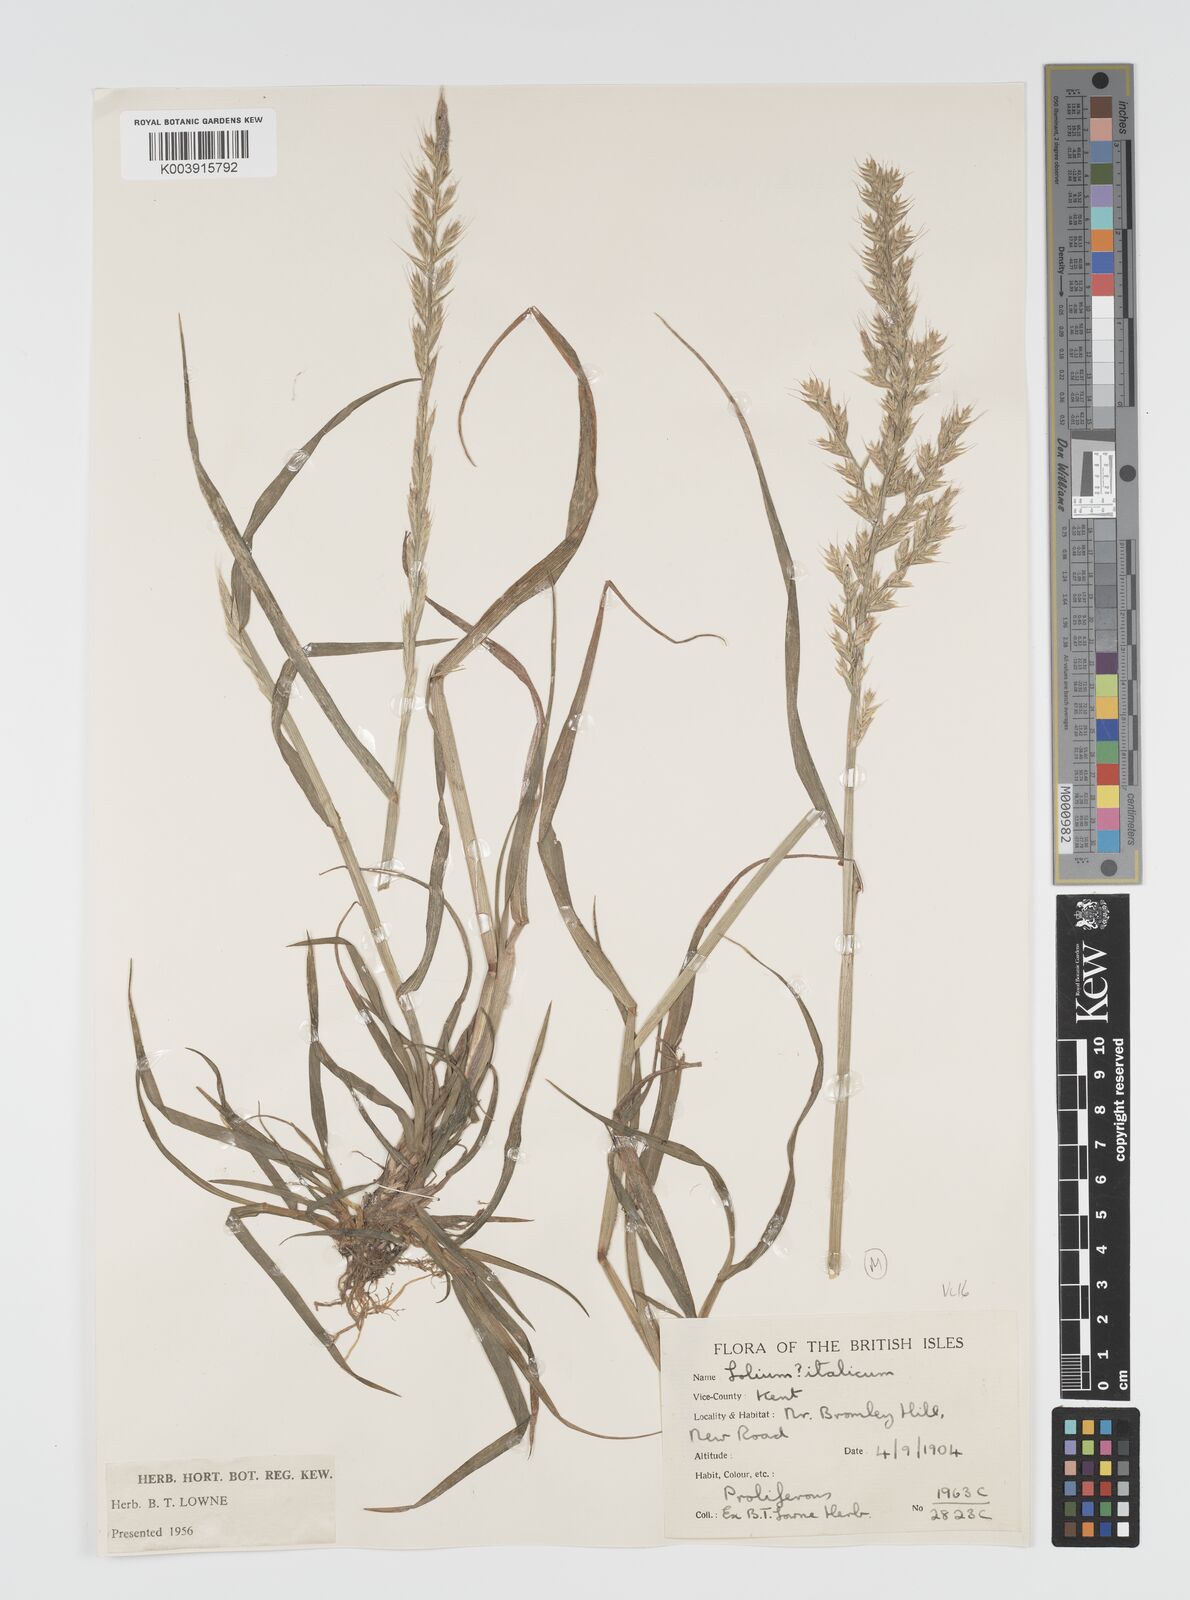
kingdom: Plantae
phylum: Tracheophyta
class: Liliopsida
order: Poales
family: Poaceae
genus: Lolium
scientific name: Lolium multiflorum
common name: Annual ryegrass
